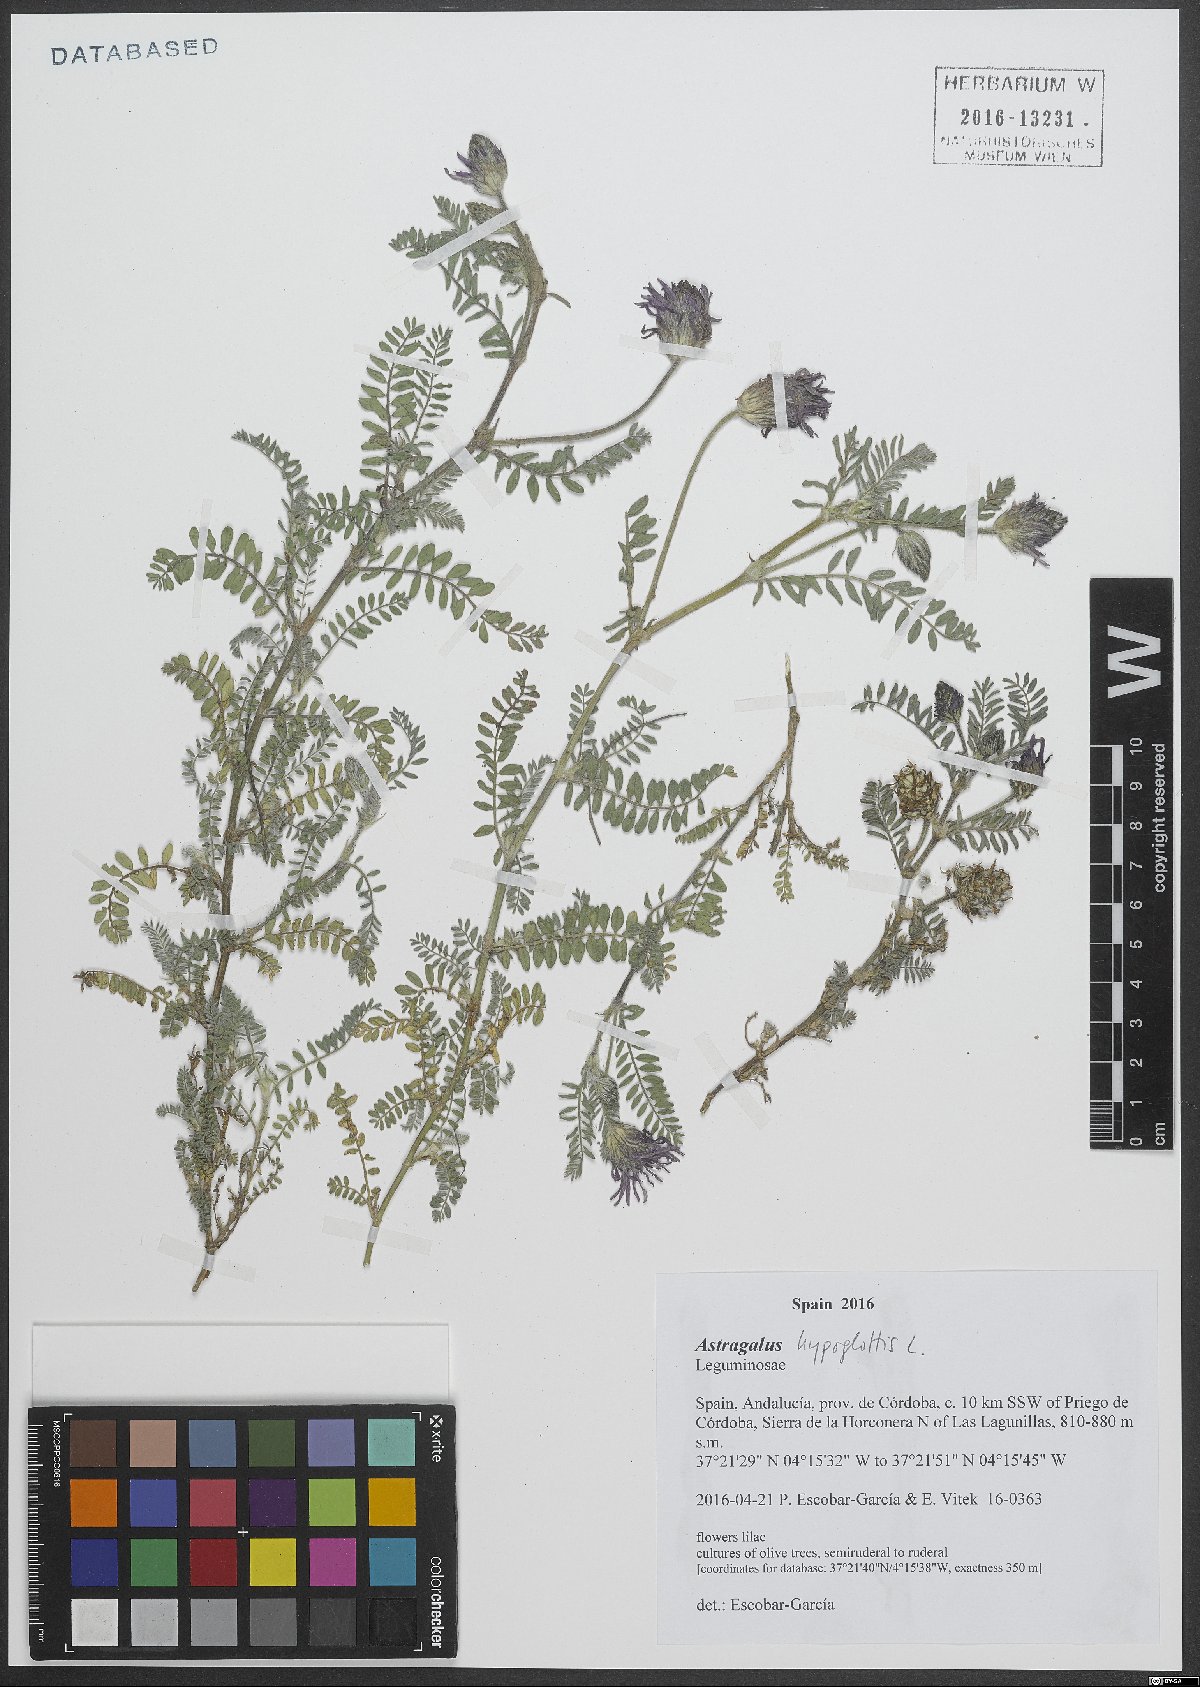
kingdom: Plantae
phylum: Tracheophyta
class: Magnoliopsida
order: Fabales
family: Fabaceae
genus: Astragalus
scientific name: Astragalus hypoglottis
